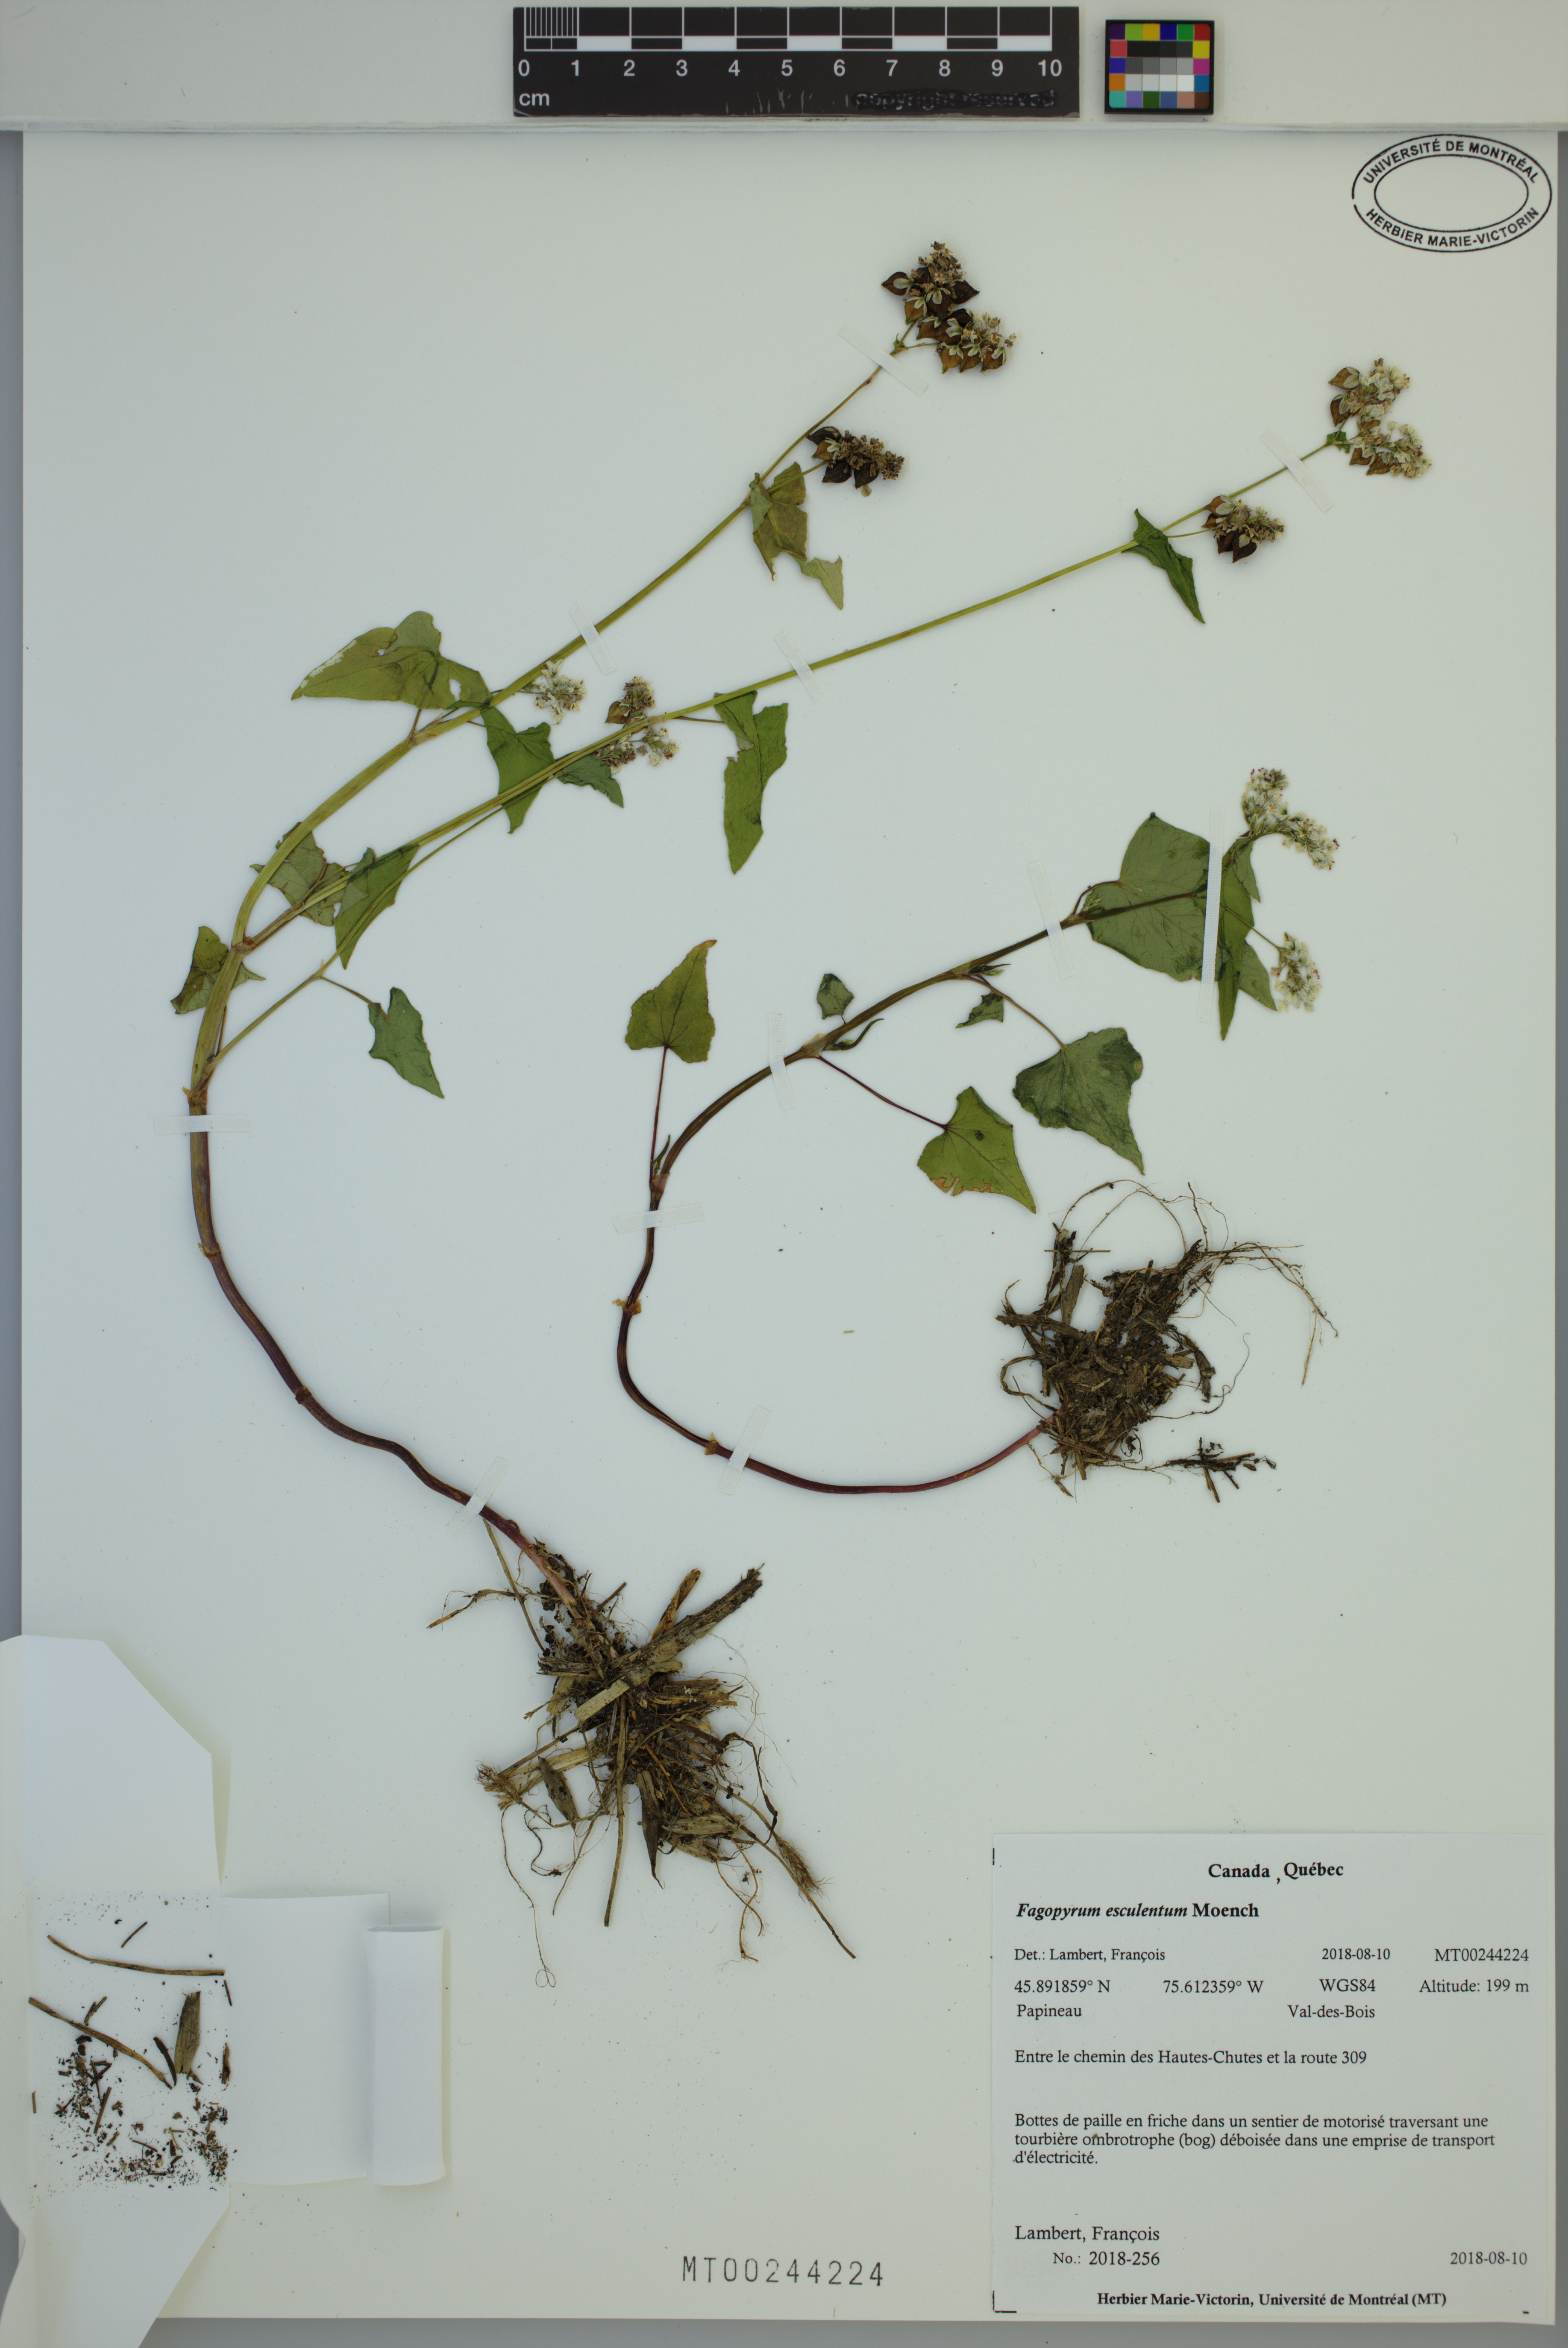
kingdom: Plantae
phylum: Tracheophyta
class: Magnoliopsida
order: Caryophyllales
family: Polygonaceae
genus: Fagopyrum
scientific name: Fagopyrum esculentum
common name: Buckwheat
